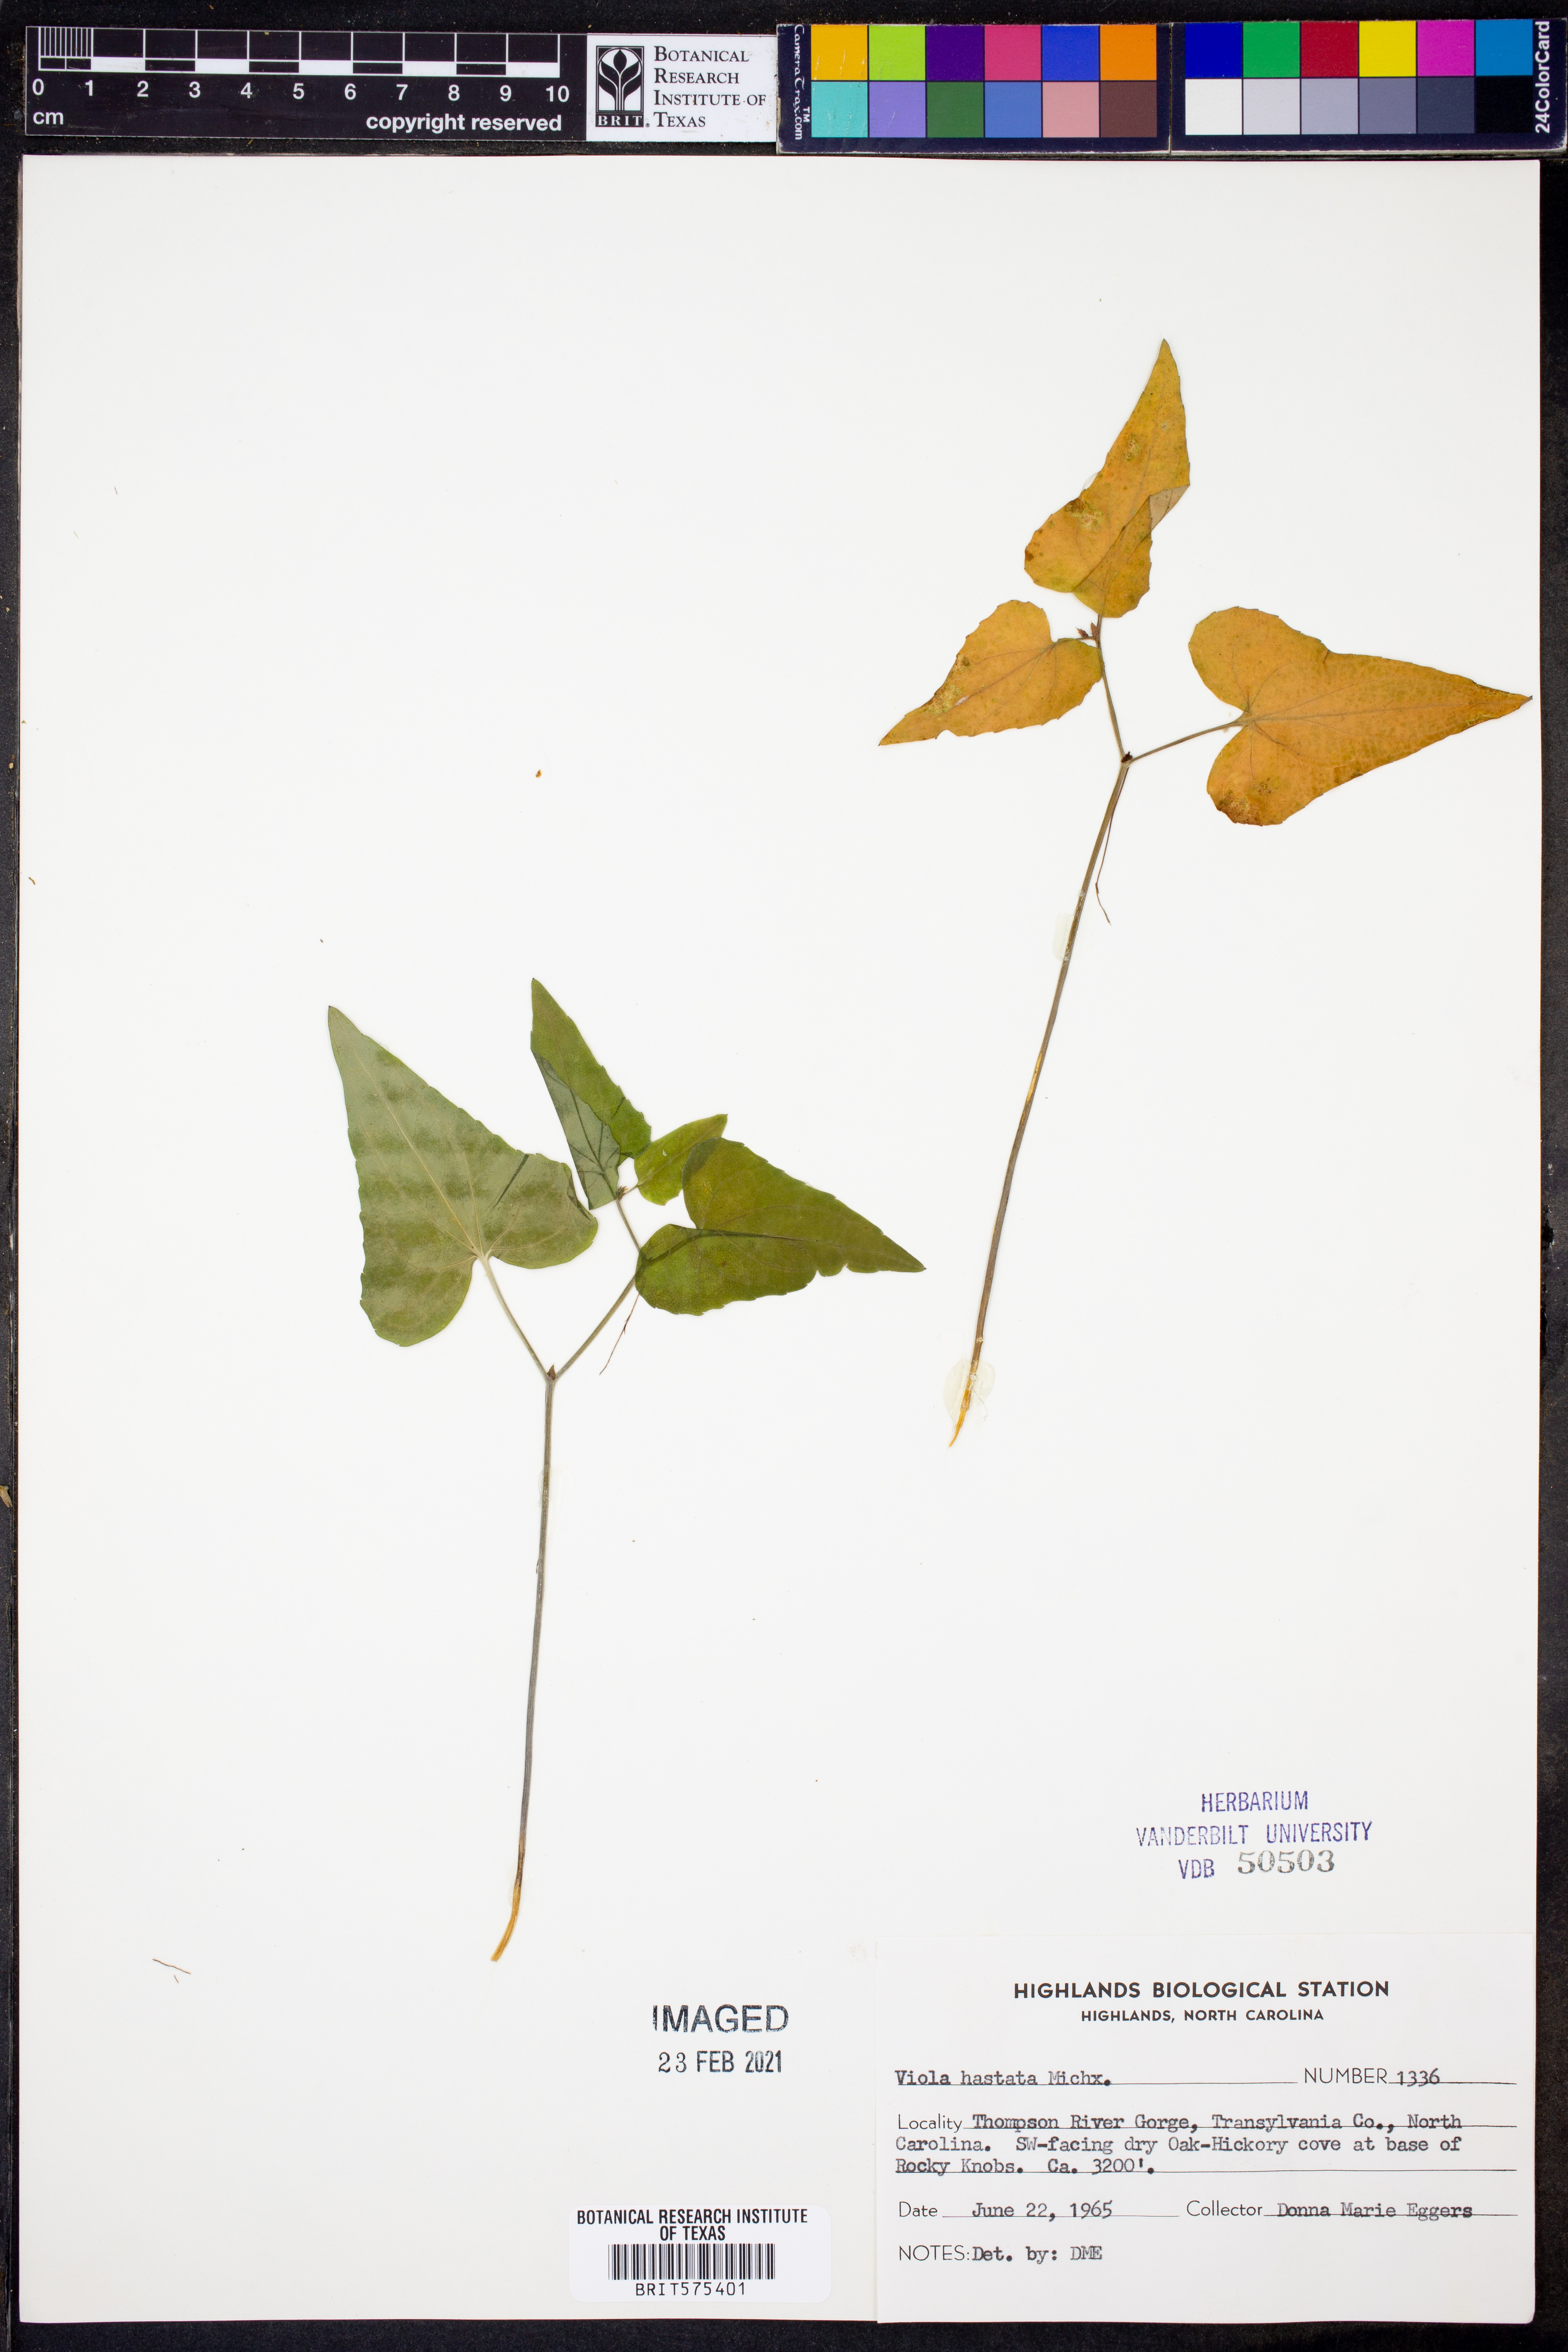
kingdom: Plantae
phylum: Tracheophyta
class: Magnoliopsida
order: Malpighiales
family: Violaceae
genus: Viola
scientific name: Viola hastata
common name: Spear-leaf violet
